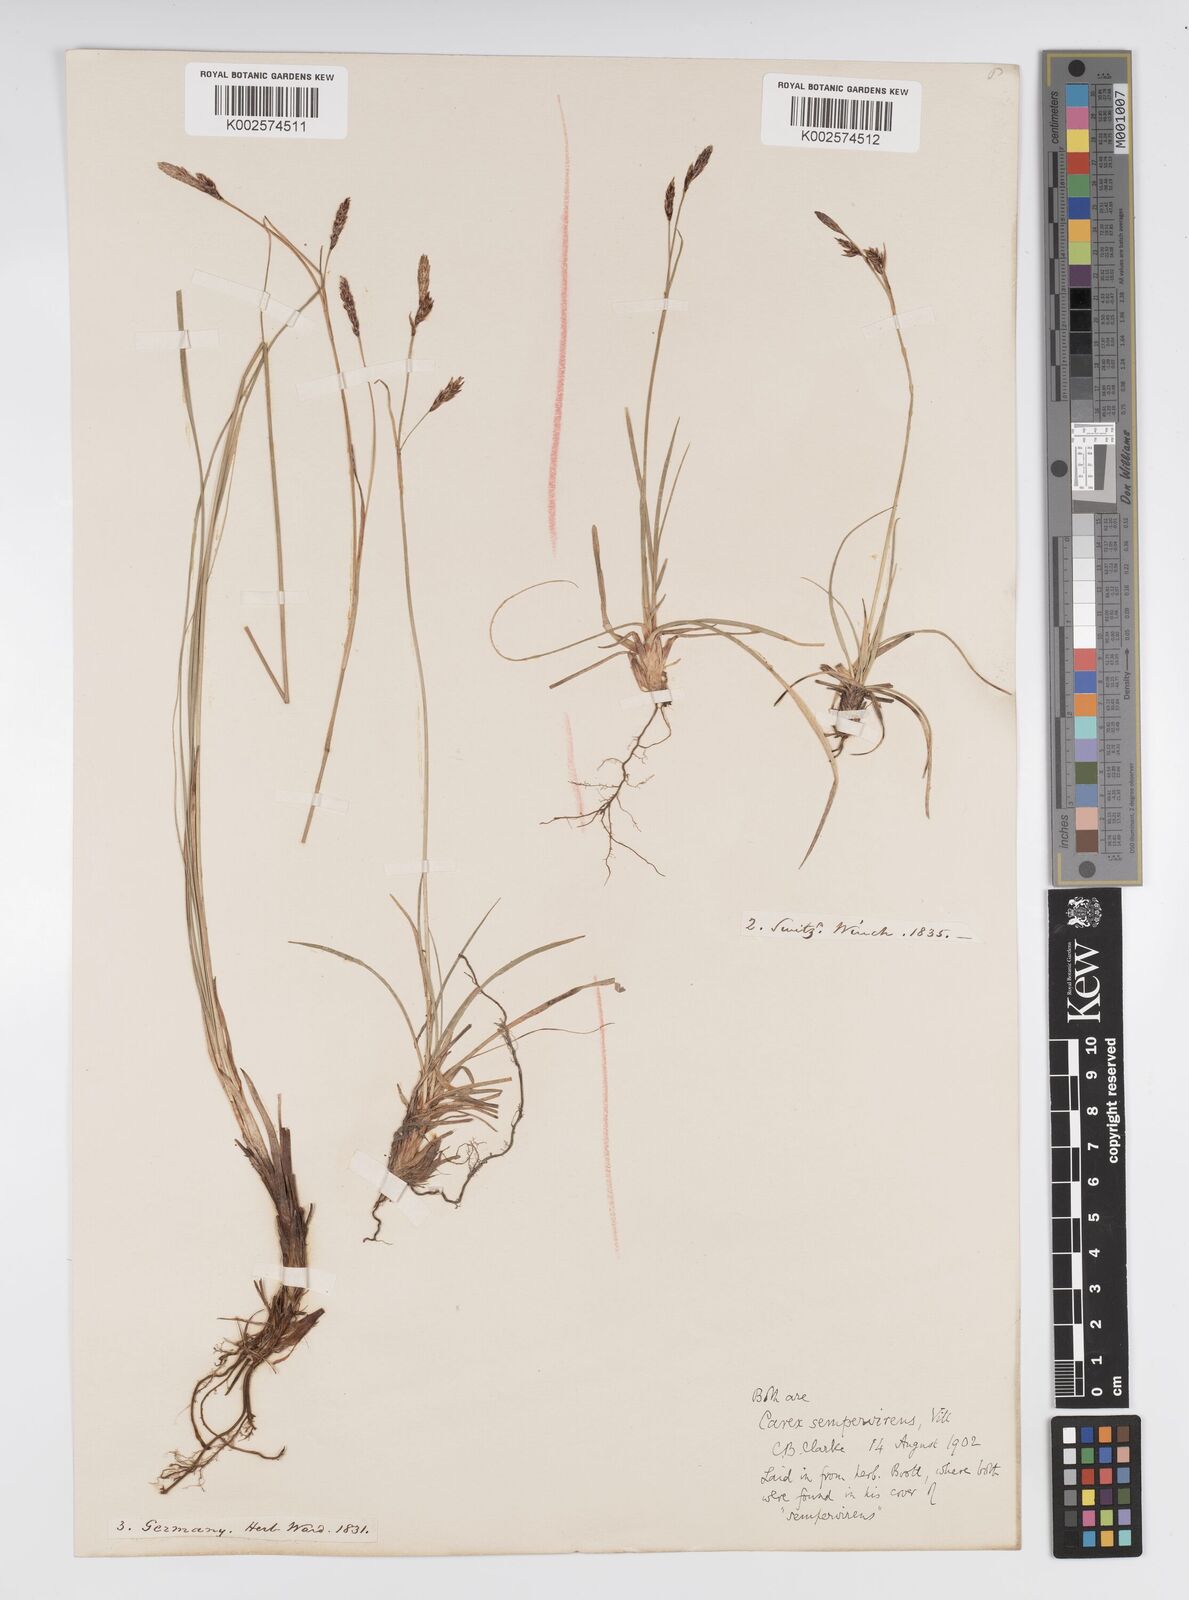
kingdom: Plantae
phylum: Tracheophyta
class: Liliopsida
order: Poales
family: Cyperaceae
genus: Carex
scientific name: Carex sempervirens
